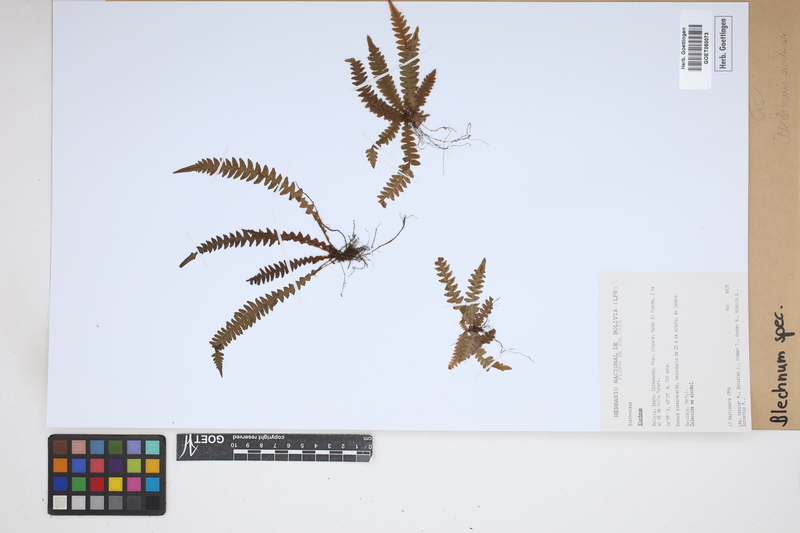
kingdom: Plantae
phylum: Tracheophyta
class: Polypodiopsida
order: Polypodiales
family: Blechnaceae
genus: Blechnum
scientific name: Blechnum
